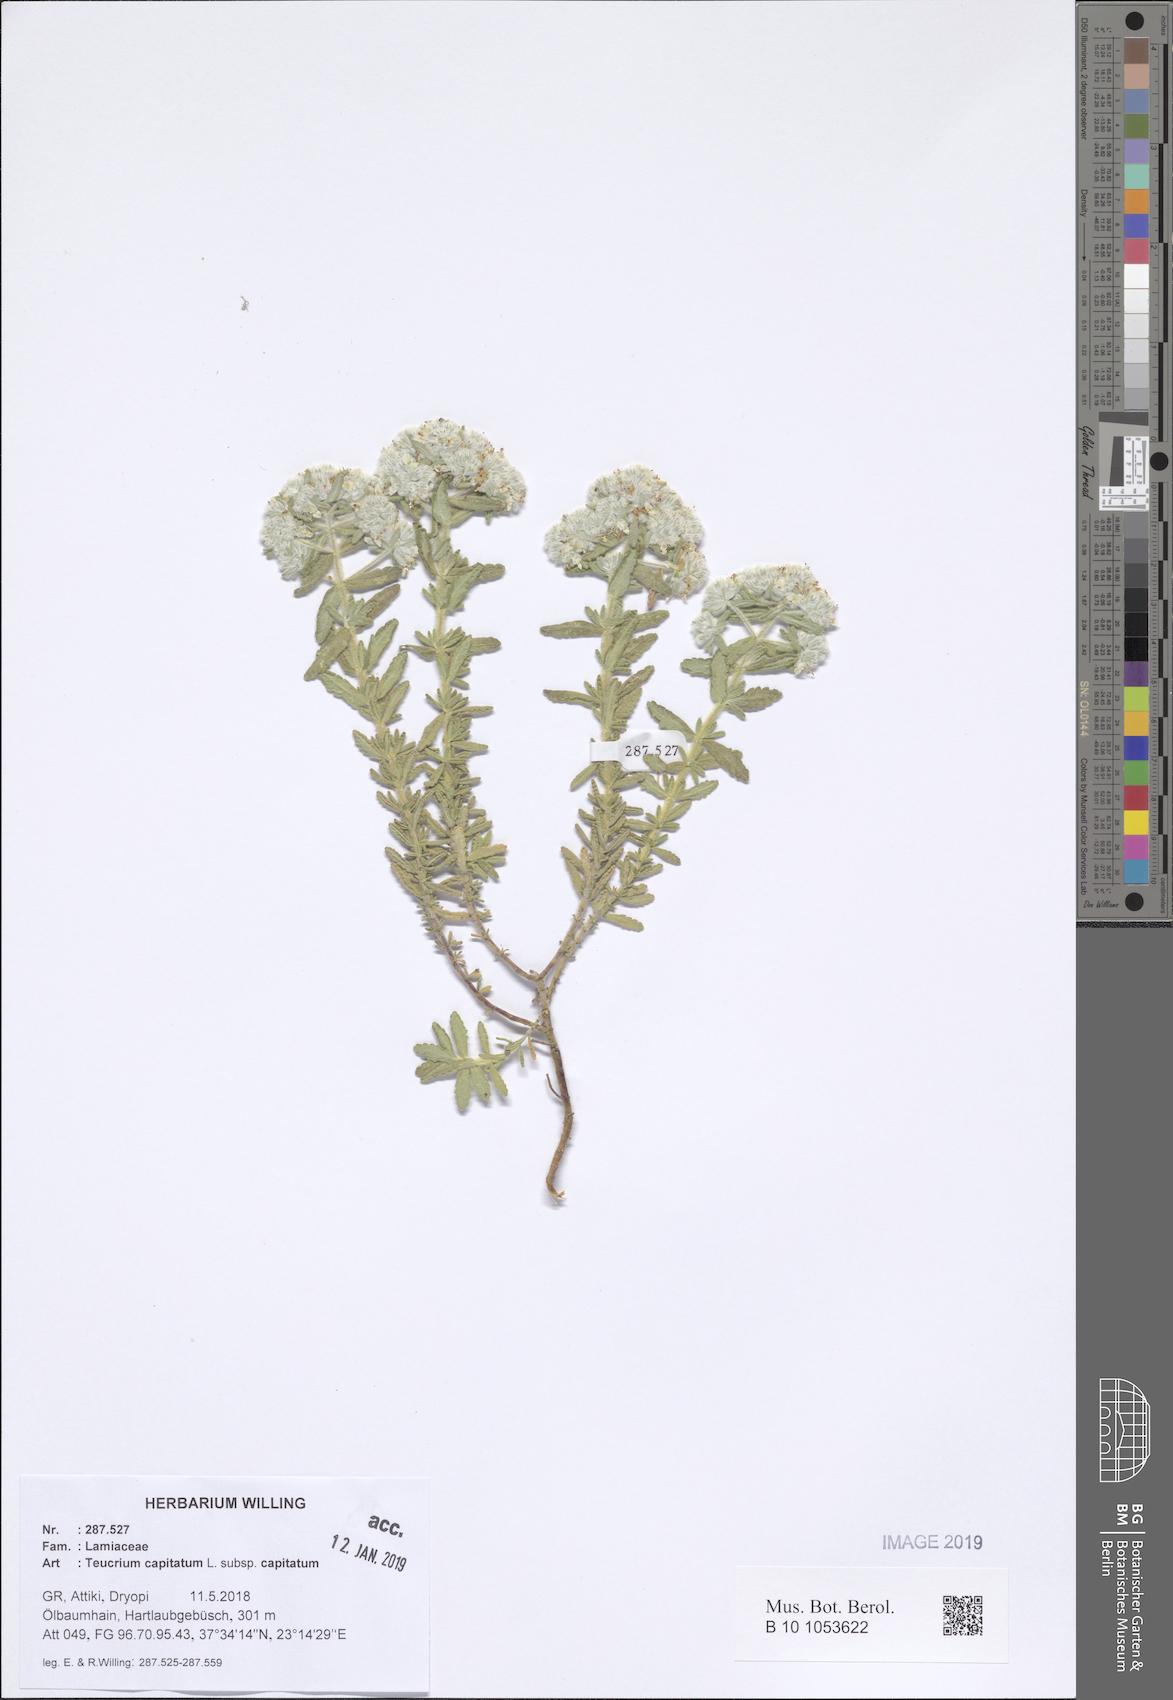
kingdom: Plantae
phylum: Tracheophyta
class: Magnoliopsida
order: Lamiales
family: Lamiaceae
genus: Teucrium
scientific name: Teucrium capitatum
